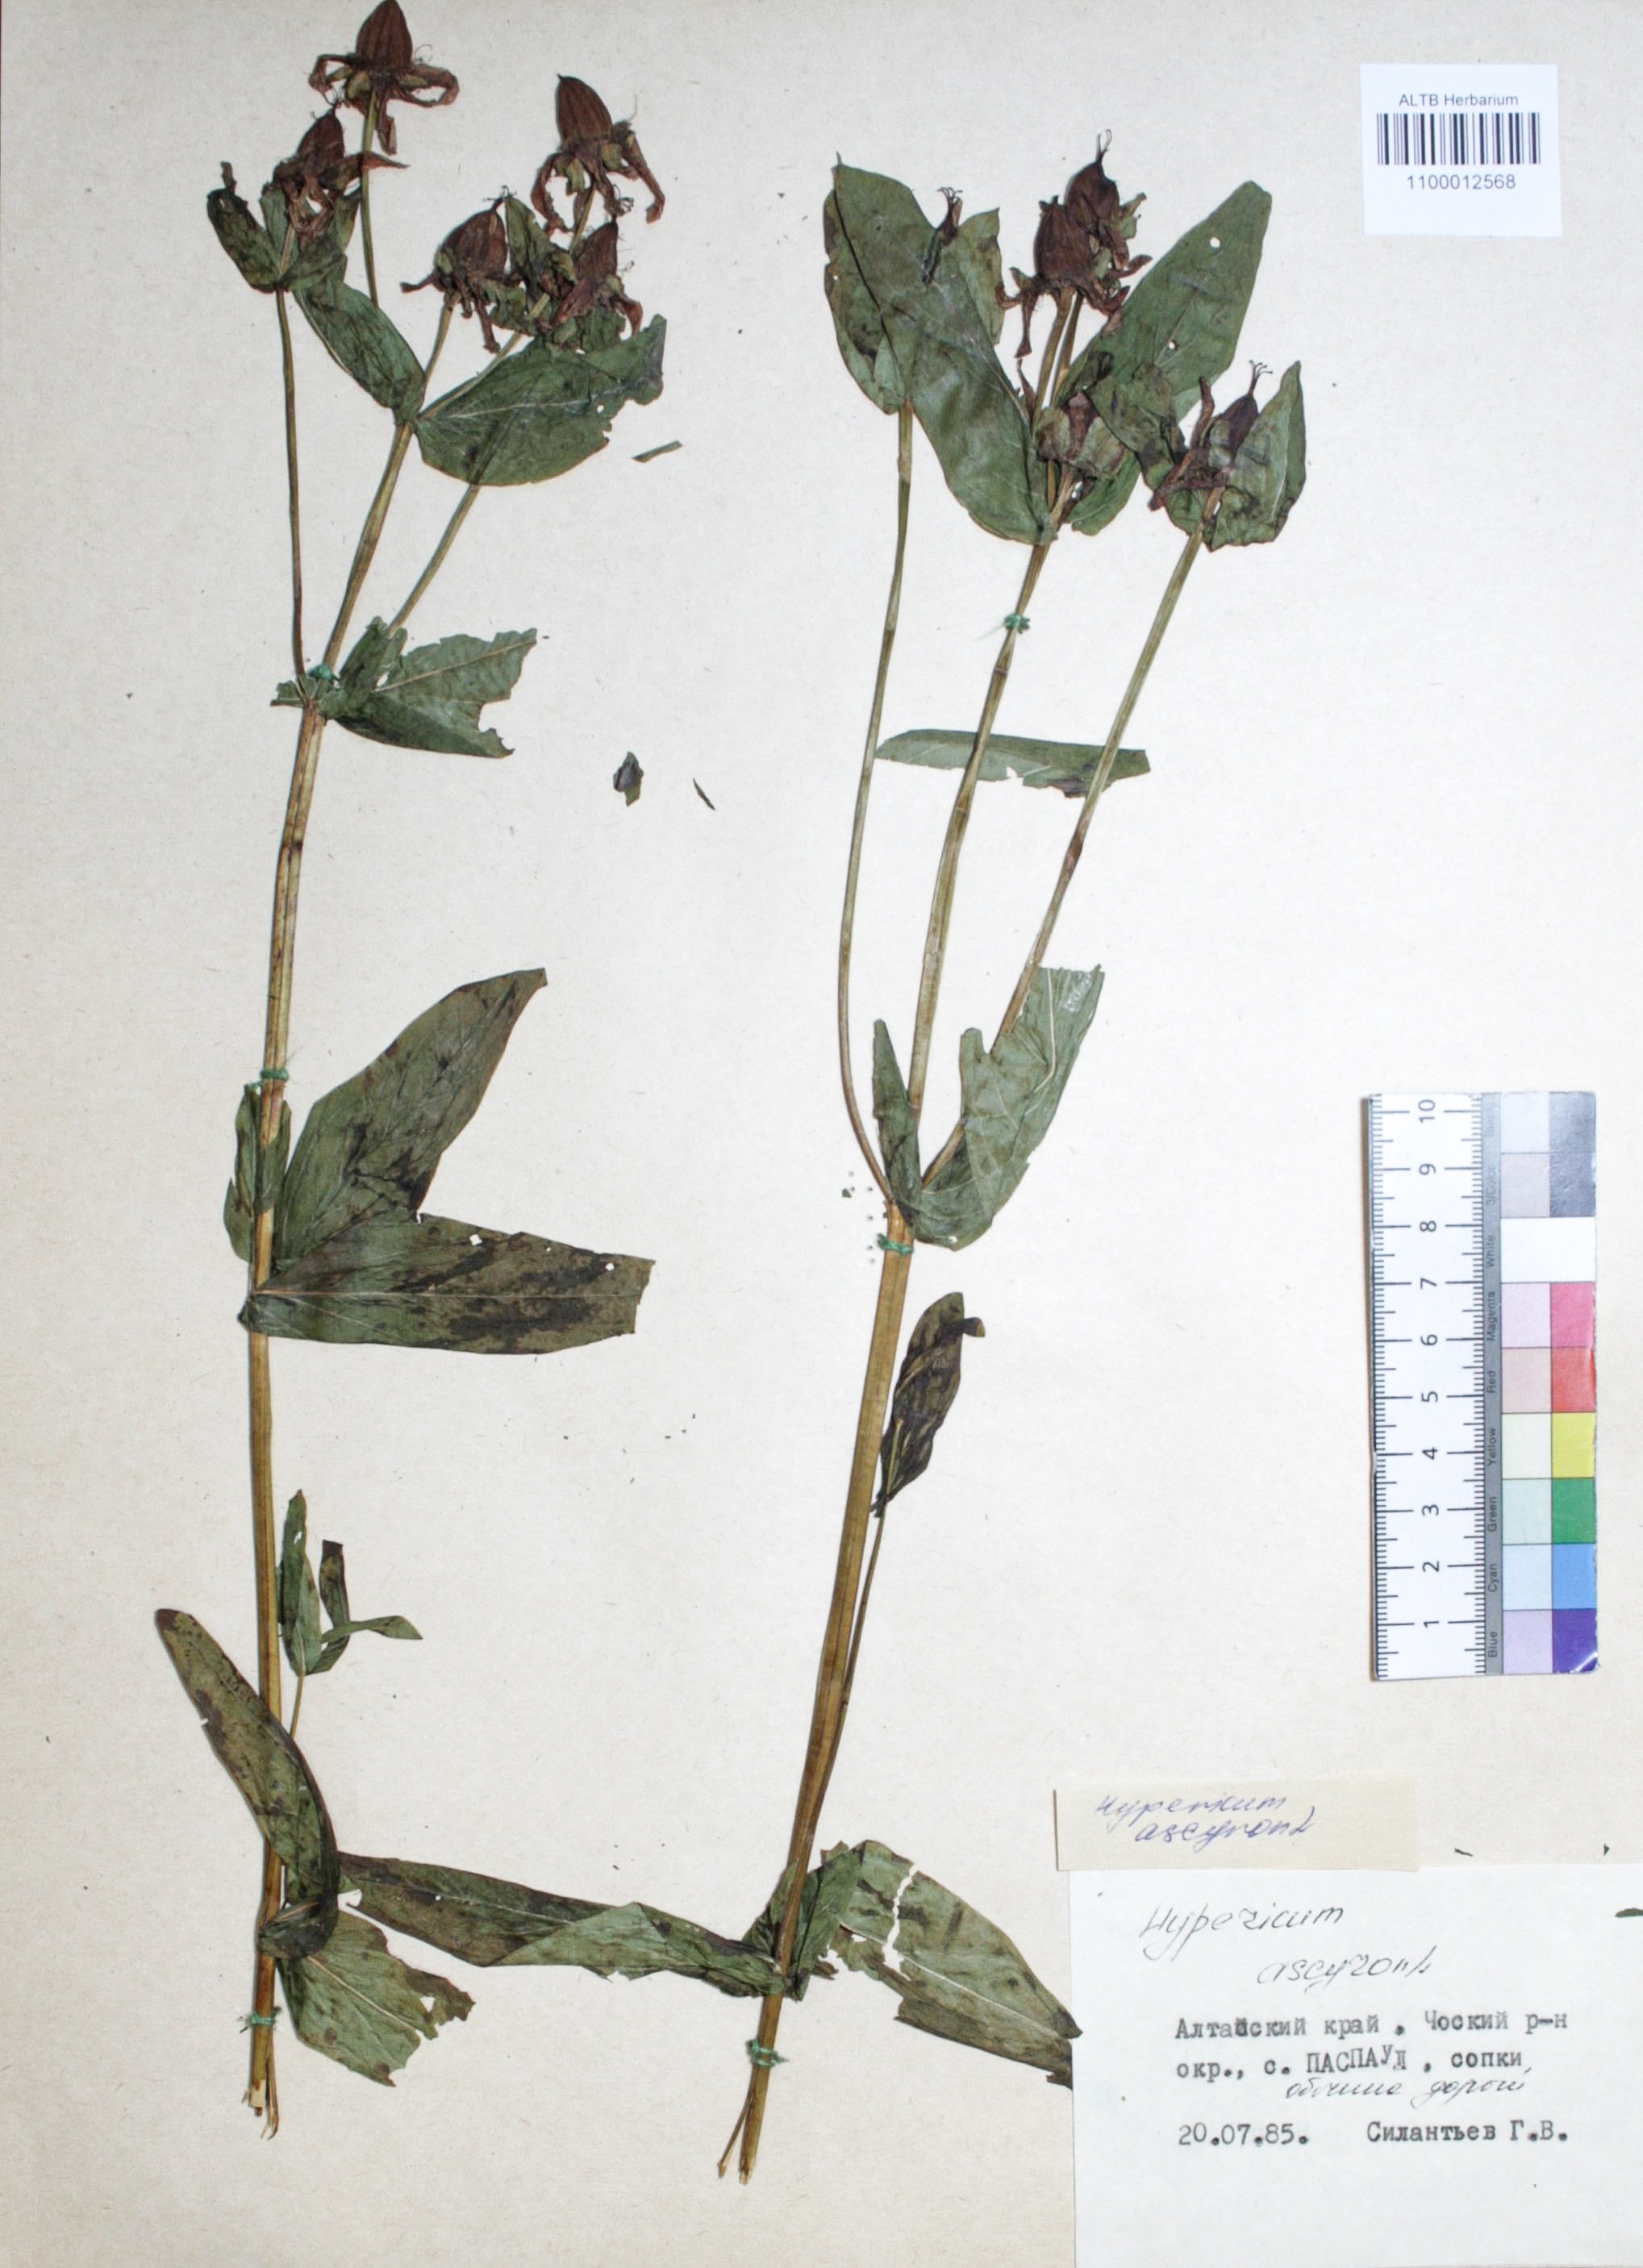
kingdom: Plantae
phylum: Tracheophyta
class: Magnoliopsida
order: Malpighiales
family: Hypericaceae
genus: Hypericum
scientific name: Hypericum ascyron
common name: Giant st. john's-wort
